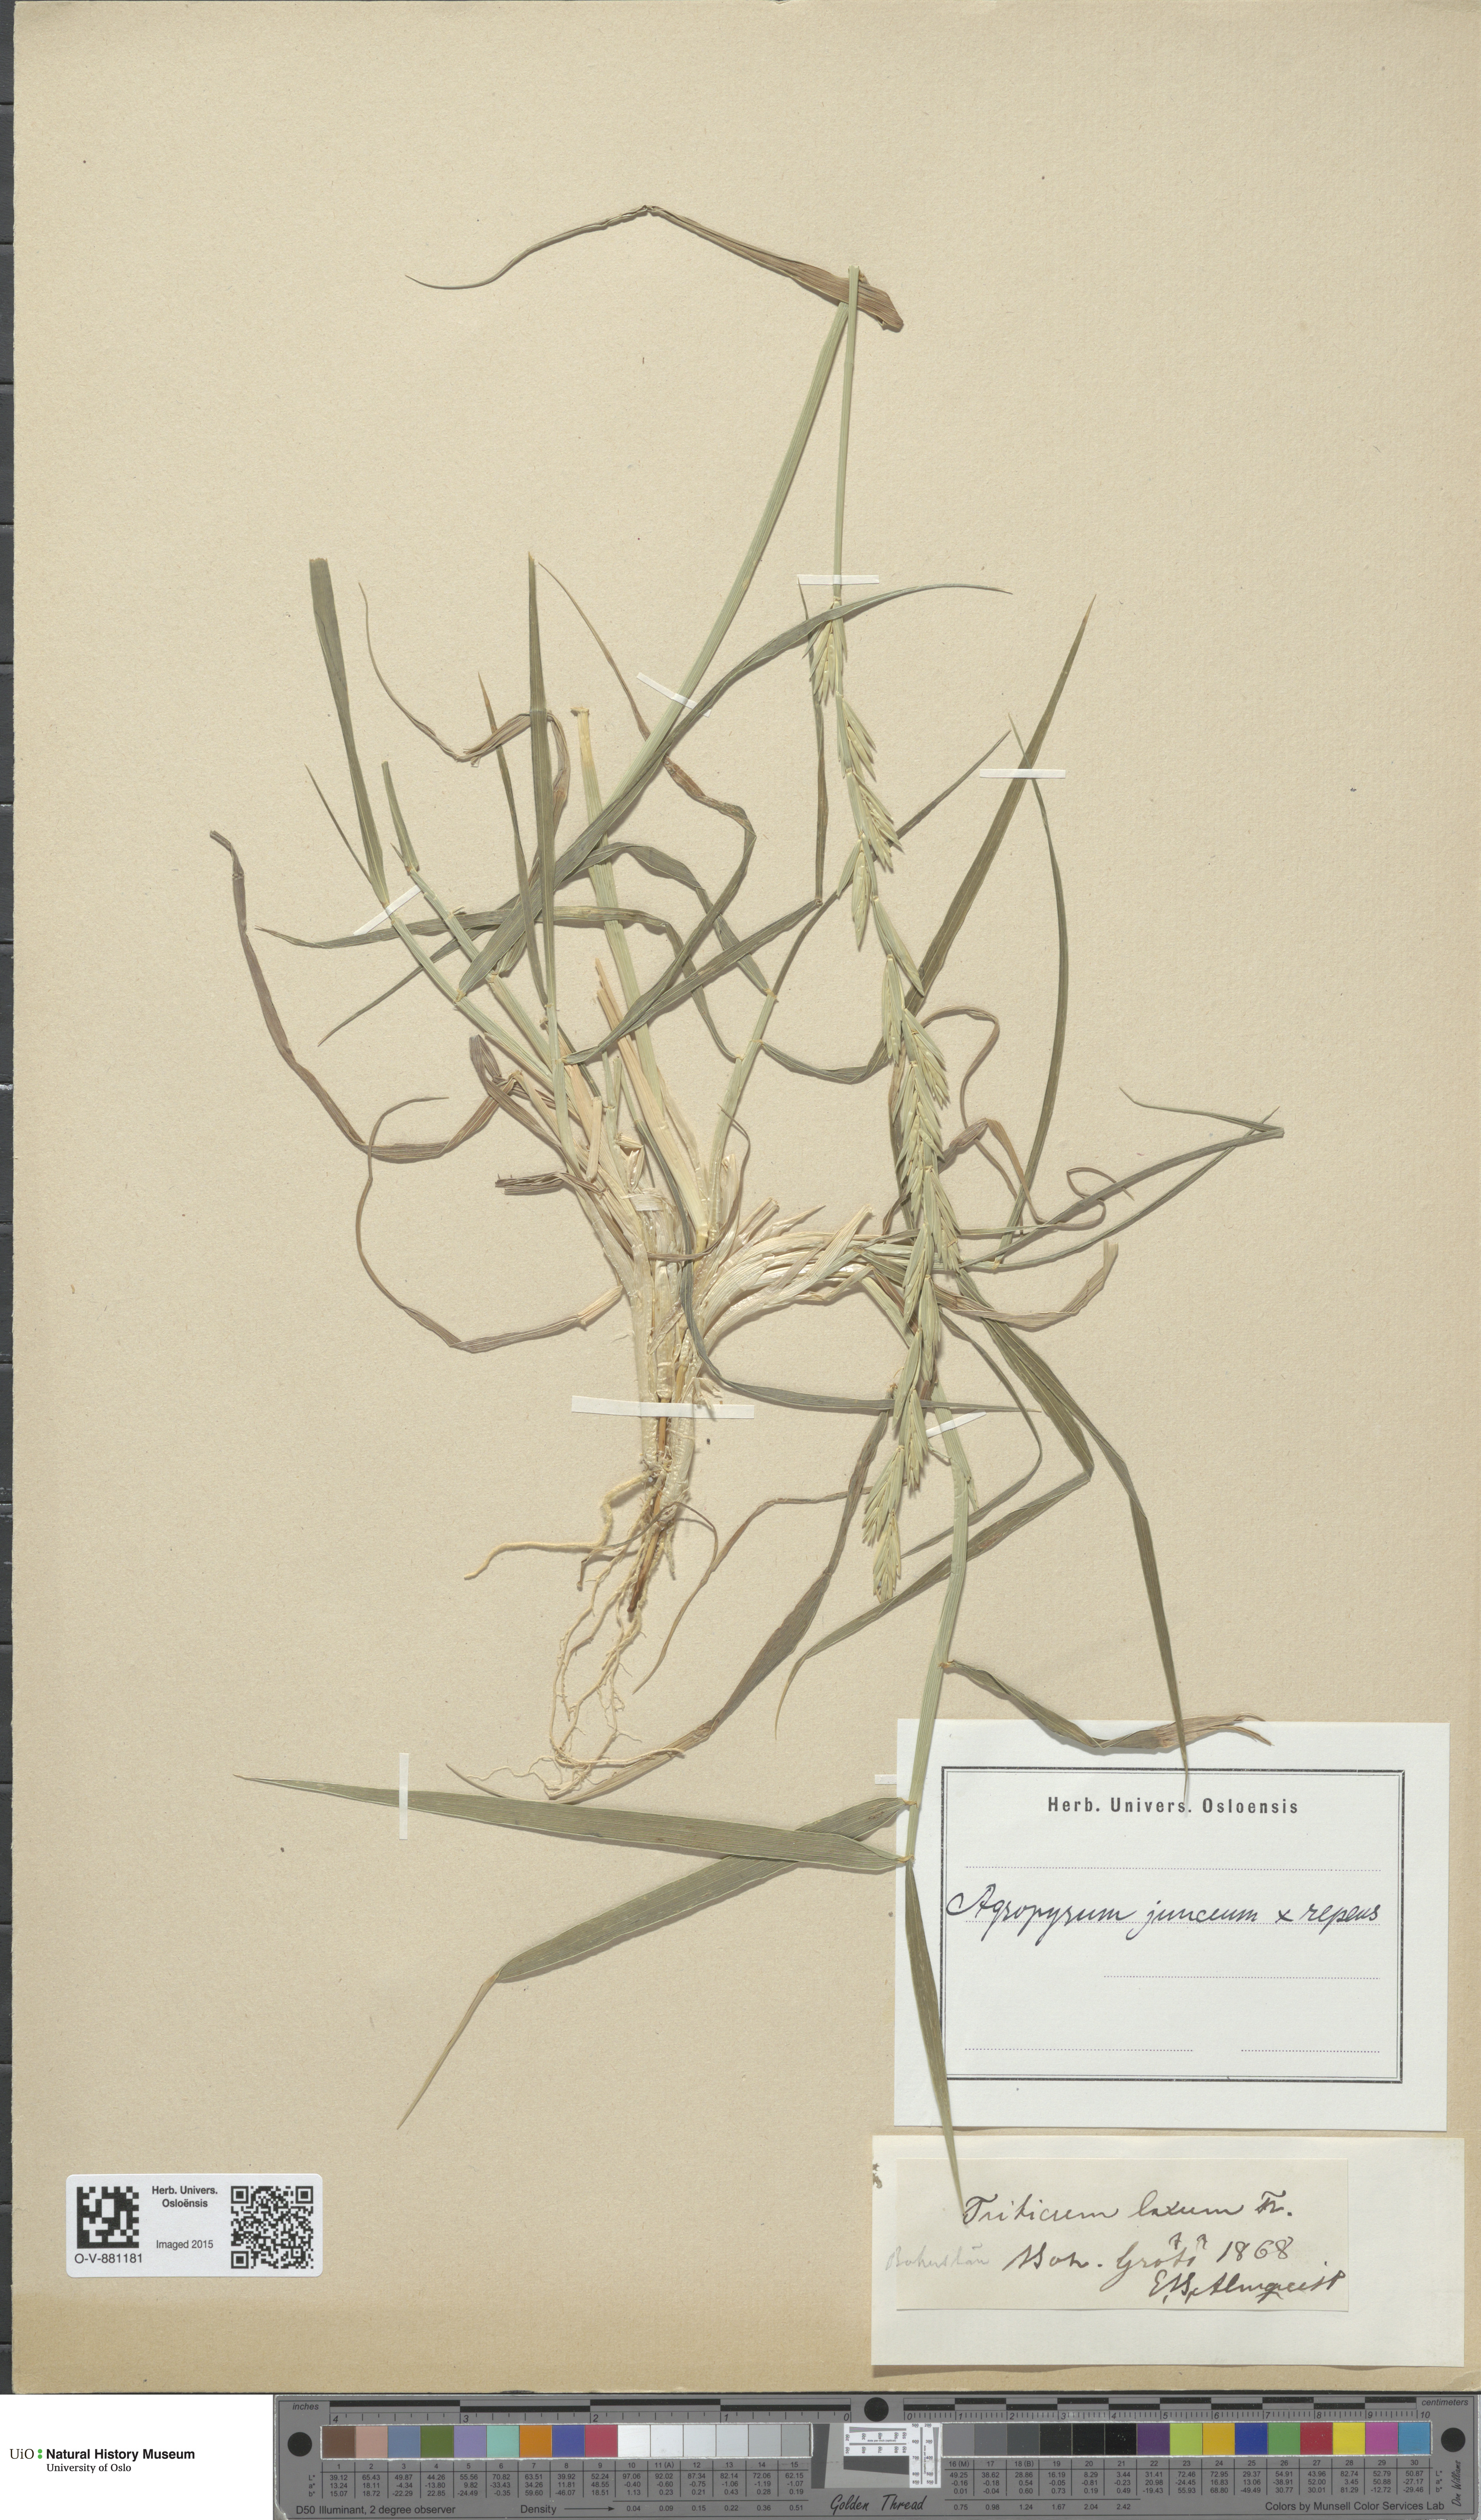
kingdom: Plantae
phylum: Tracheophyta
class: Liliopsida
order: Poales
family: Poaceae
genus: Elymus
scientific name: Elymus
